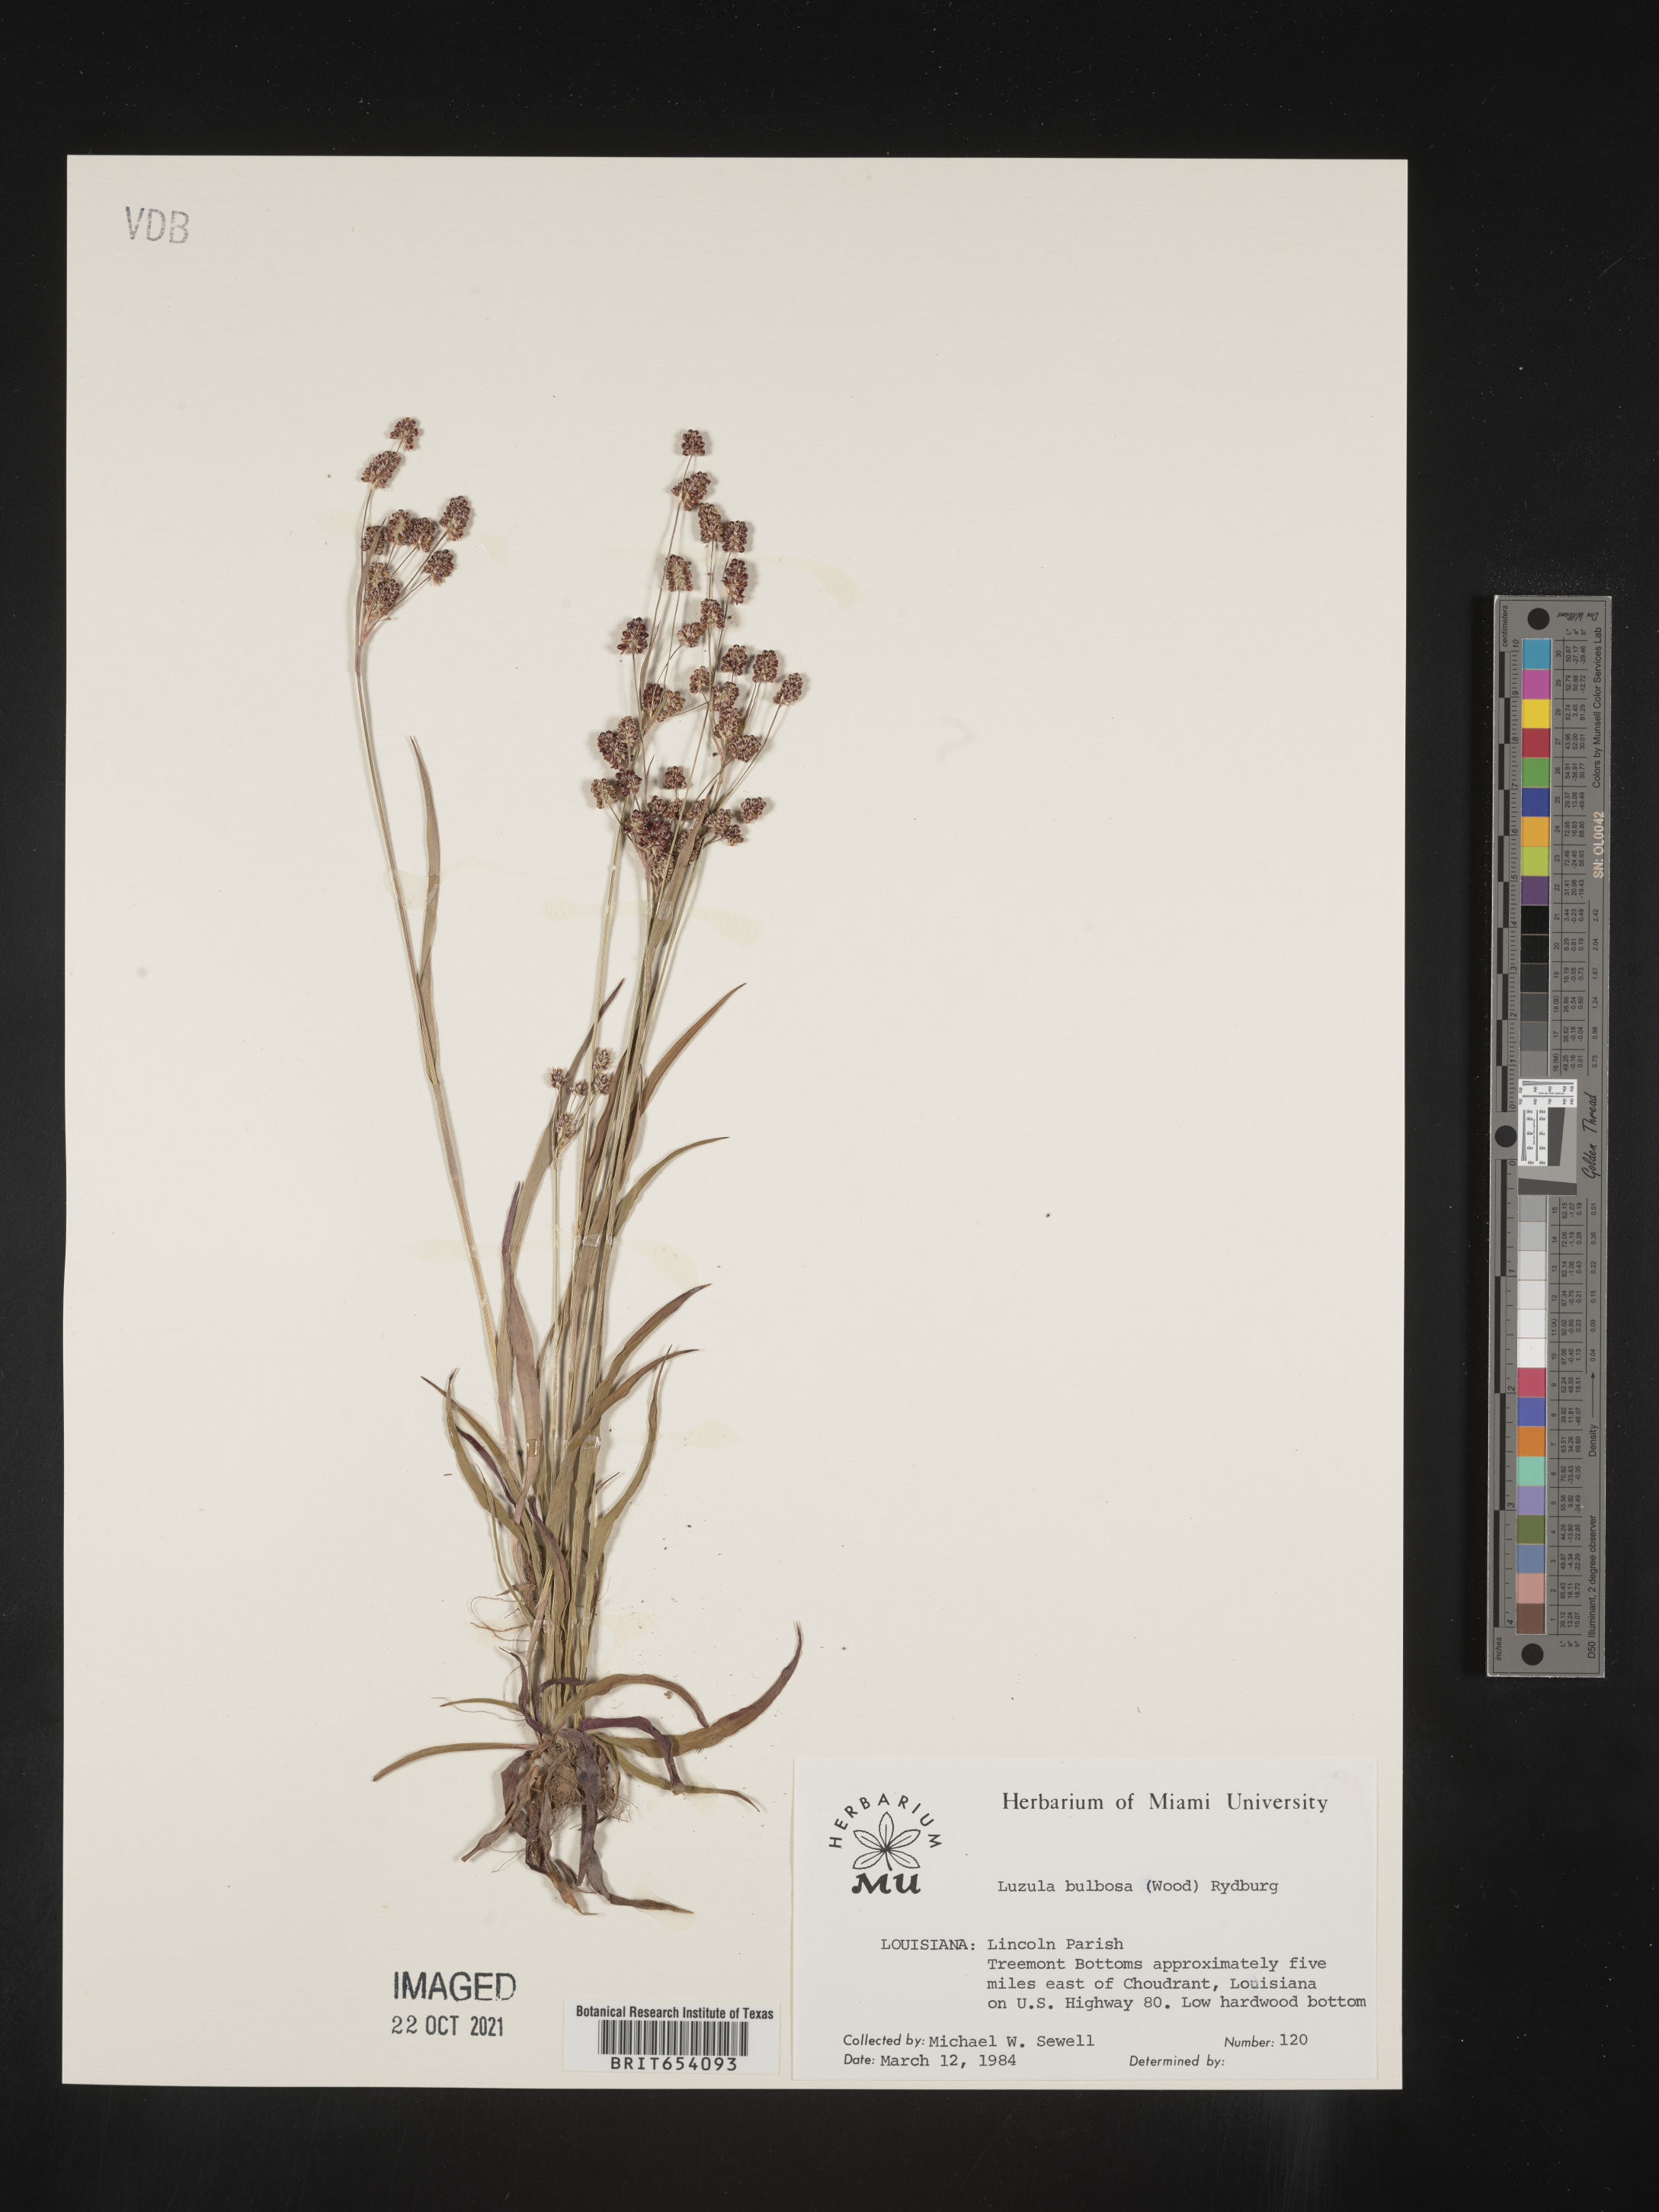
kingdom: Plantae
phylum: Tracheophyta
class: Liliopsida
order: Poales
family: Juncaceae
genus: Luzula
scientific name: Luzula bulbosa
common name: Bulbous woodrush
